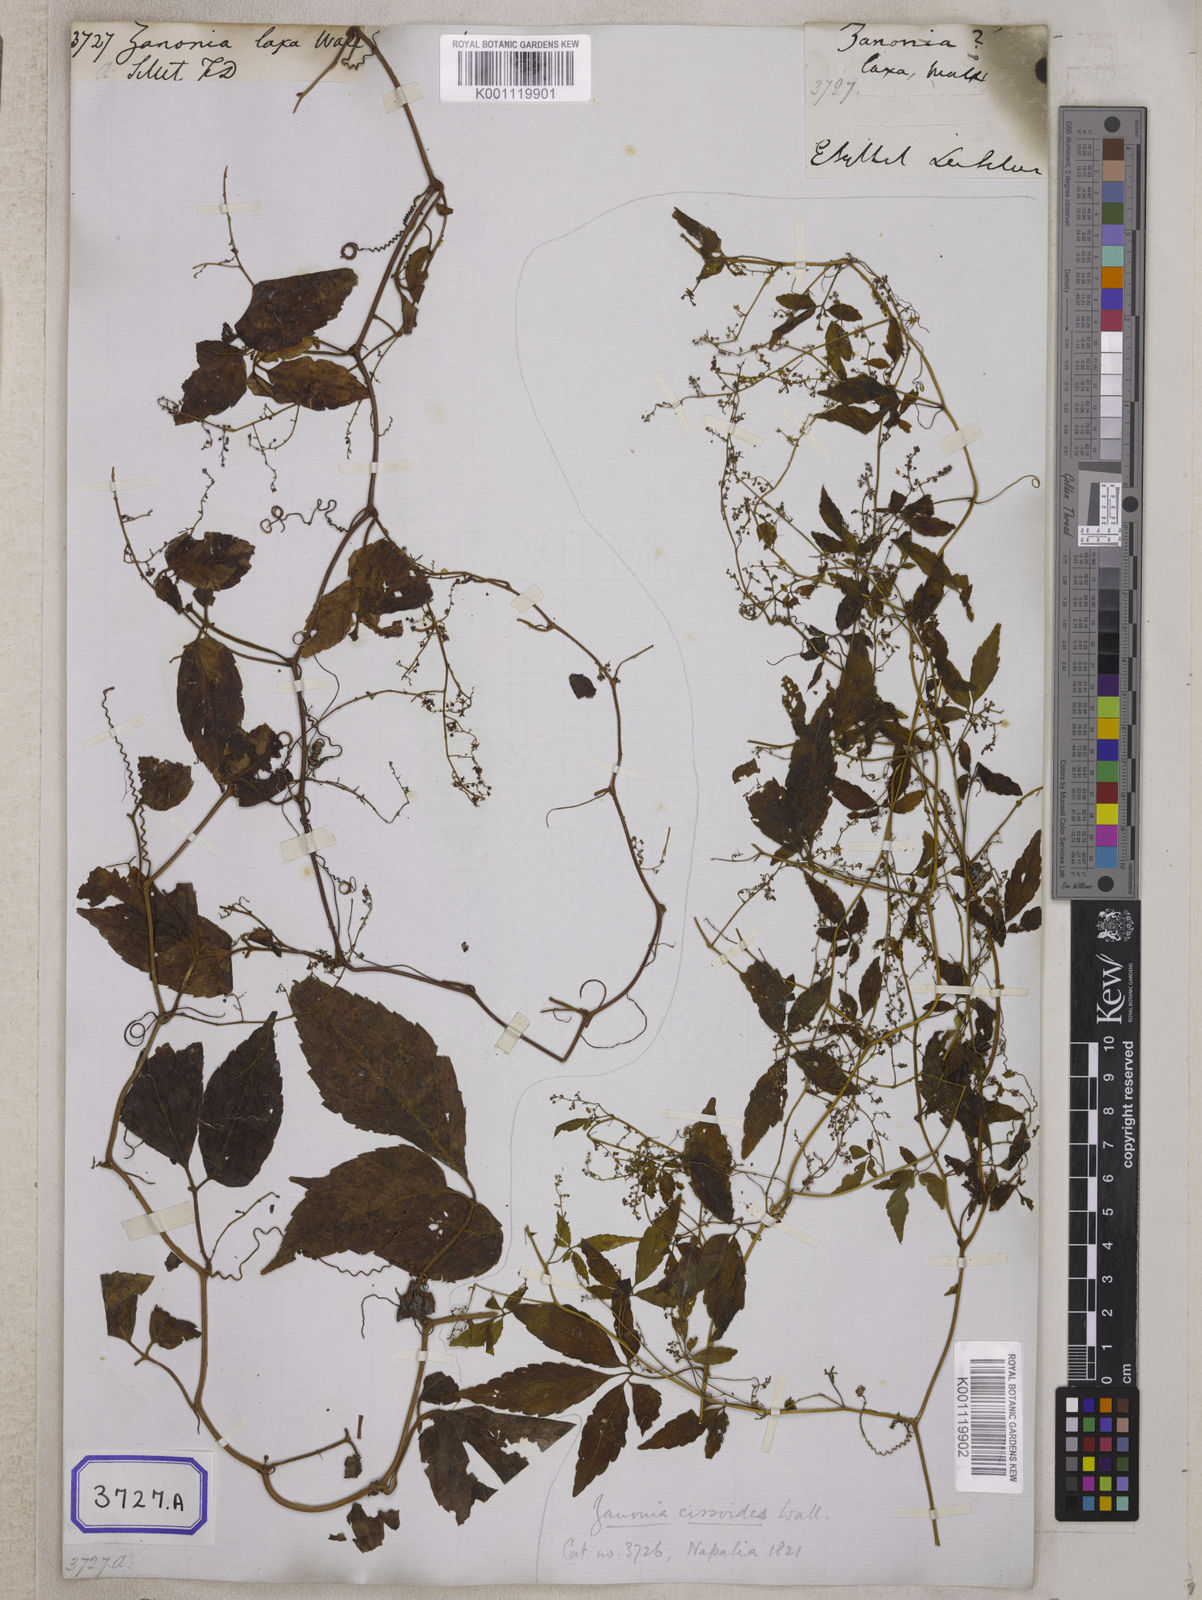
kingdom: Plantae
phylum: Tracheophyta
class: Magnoliopsida
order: Cucurbitales
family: Cucurbitaceae
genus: Gynostemma
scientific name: Gynostemma laxum
